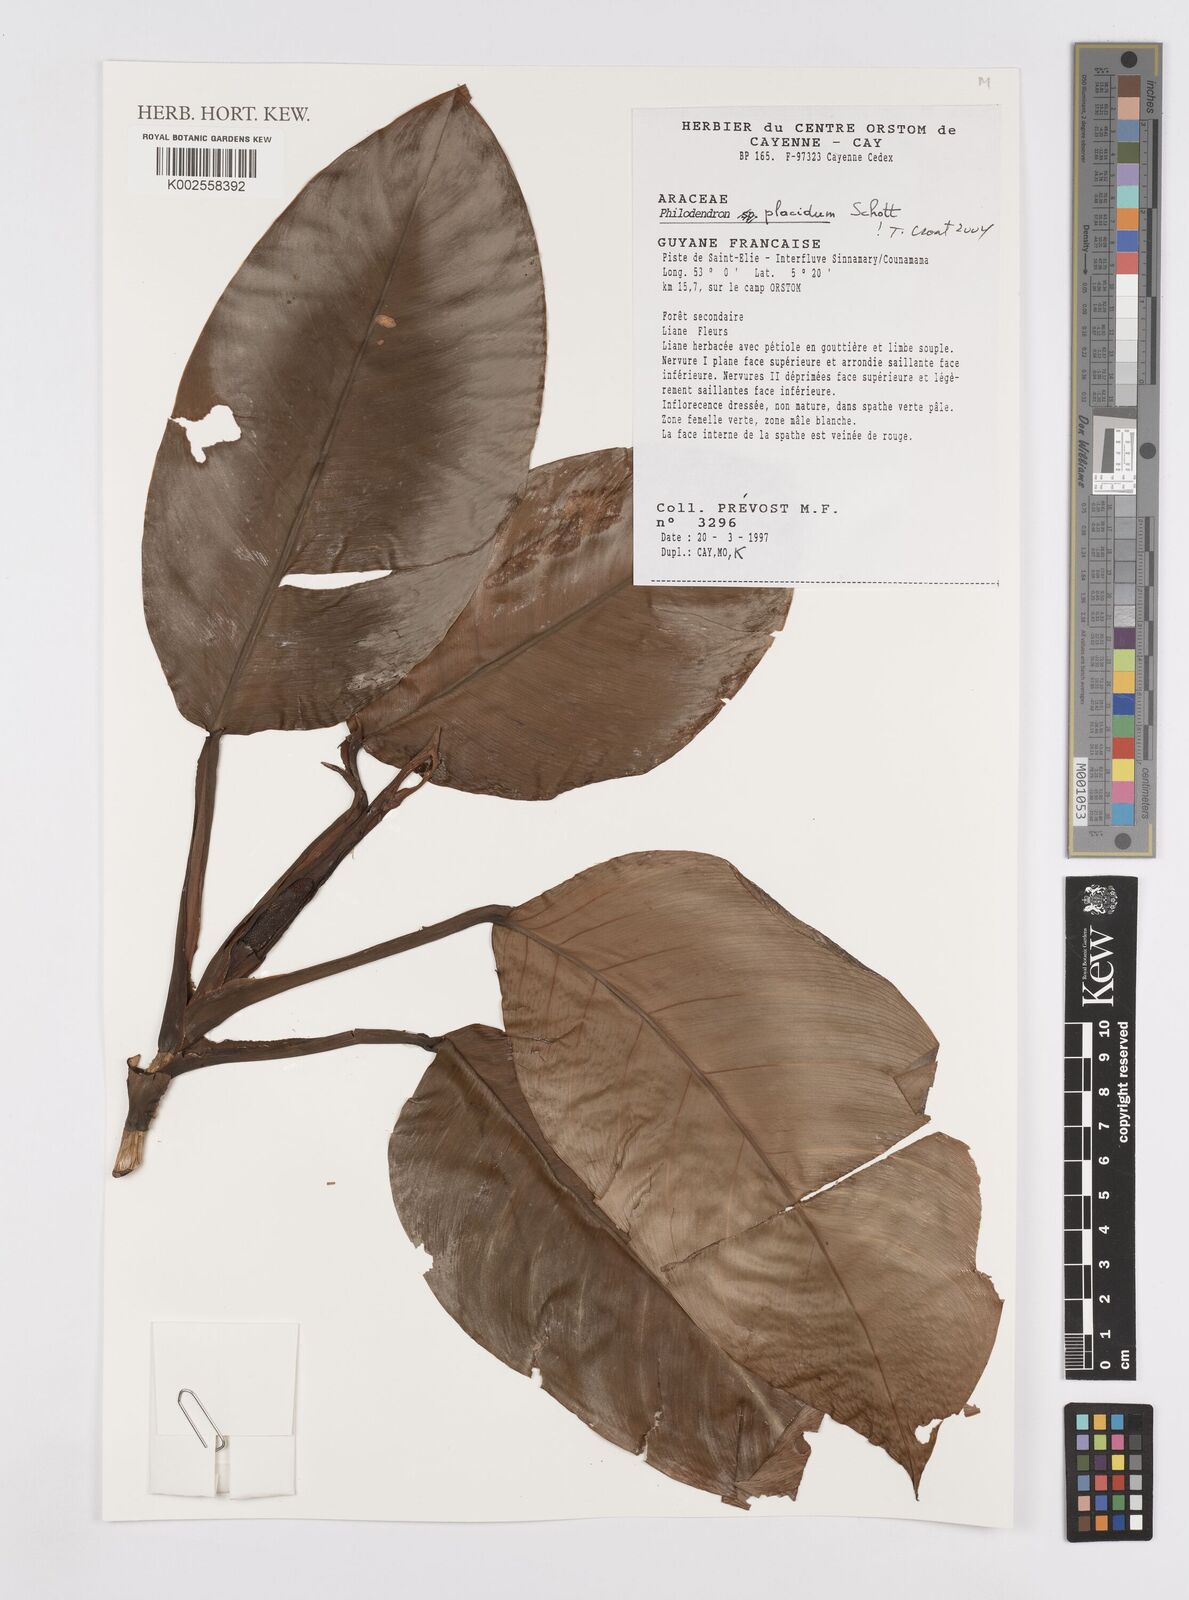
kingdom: Plantae
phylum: Tracheophyta
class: Liliopsida
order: Alismatales
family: Araceae
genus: Philodendron
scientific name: Philodendron placidum
